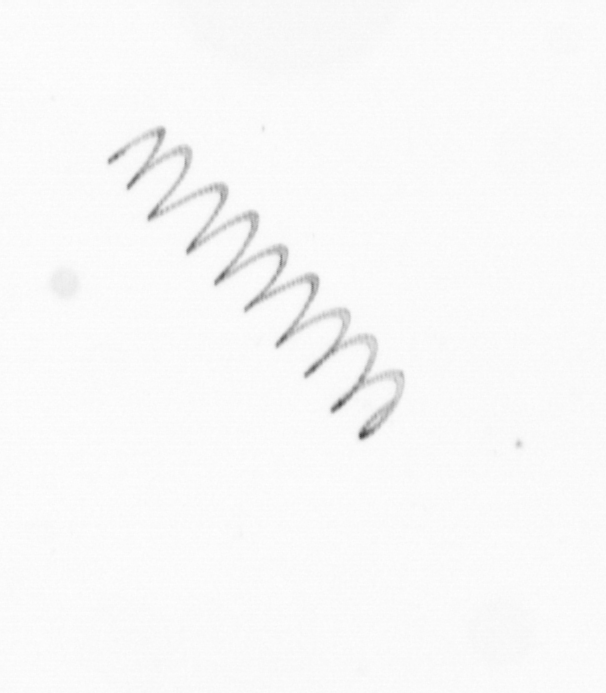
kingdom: Chromista
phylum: Ochrophyta
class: Bacillariophyceae
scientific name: Bacillariophyceae
